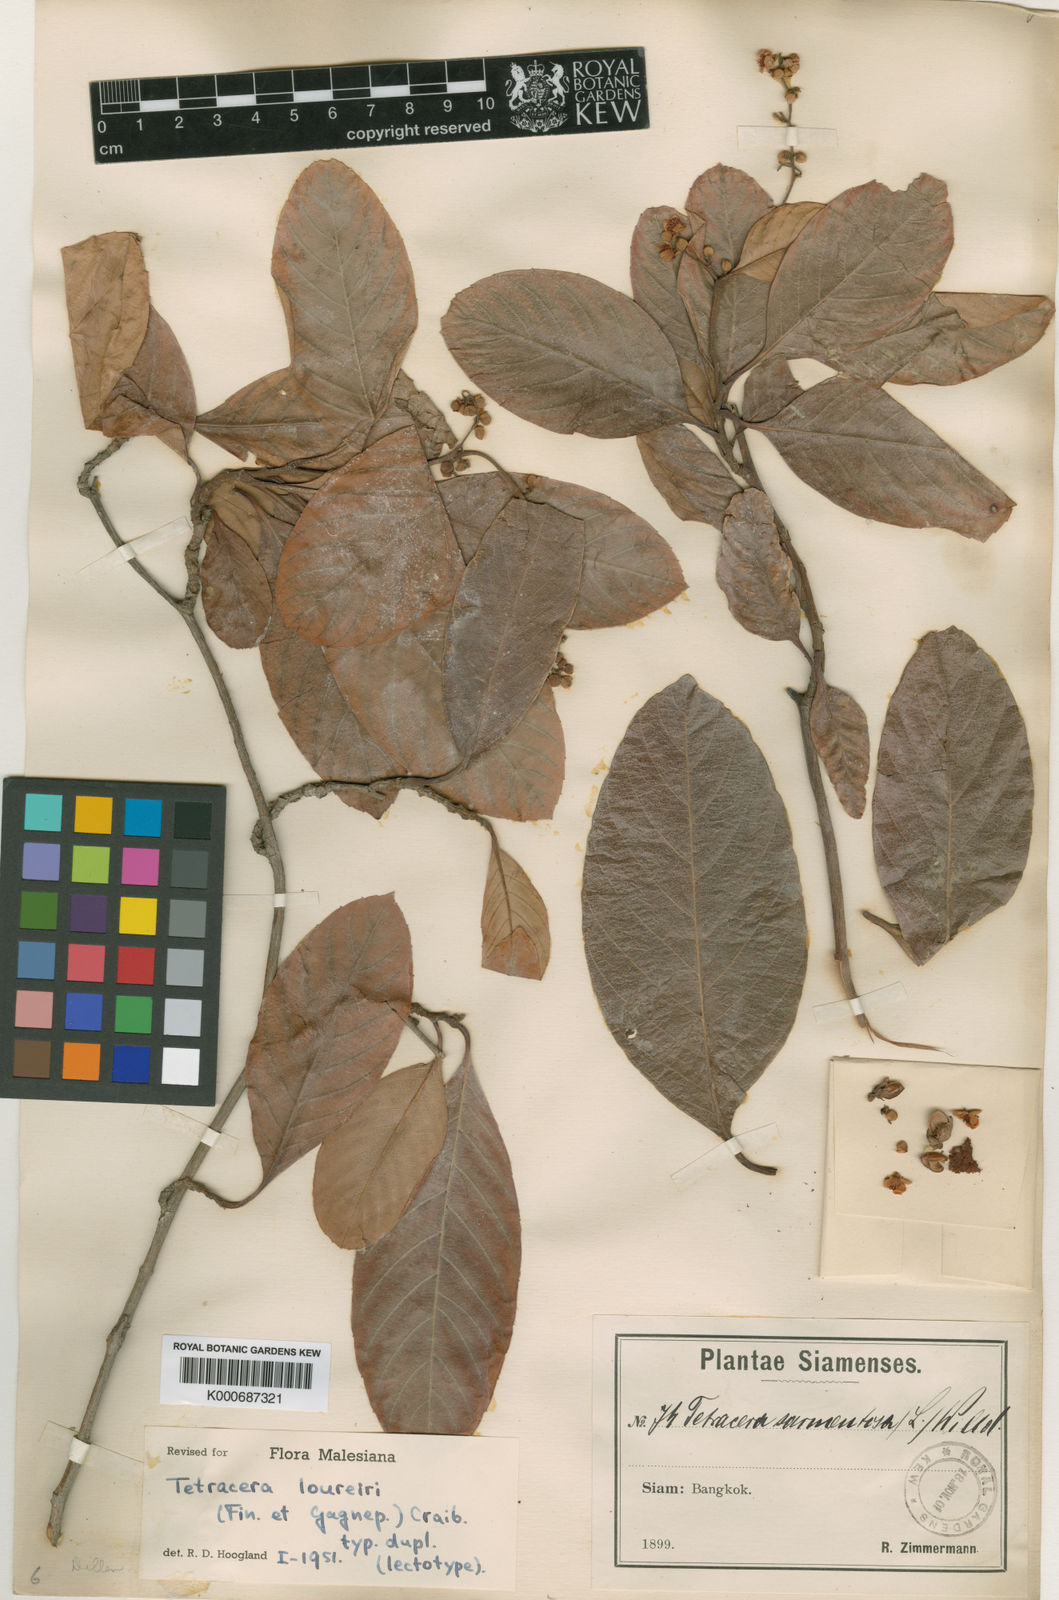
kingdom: Plantae
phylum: Tracheophyta
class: Magnoliopsida
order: Dilleniales
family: Dilleniaceae
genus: Tetracera
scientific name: Tetracera
